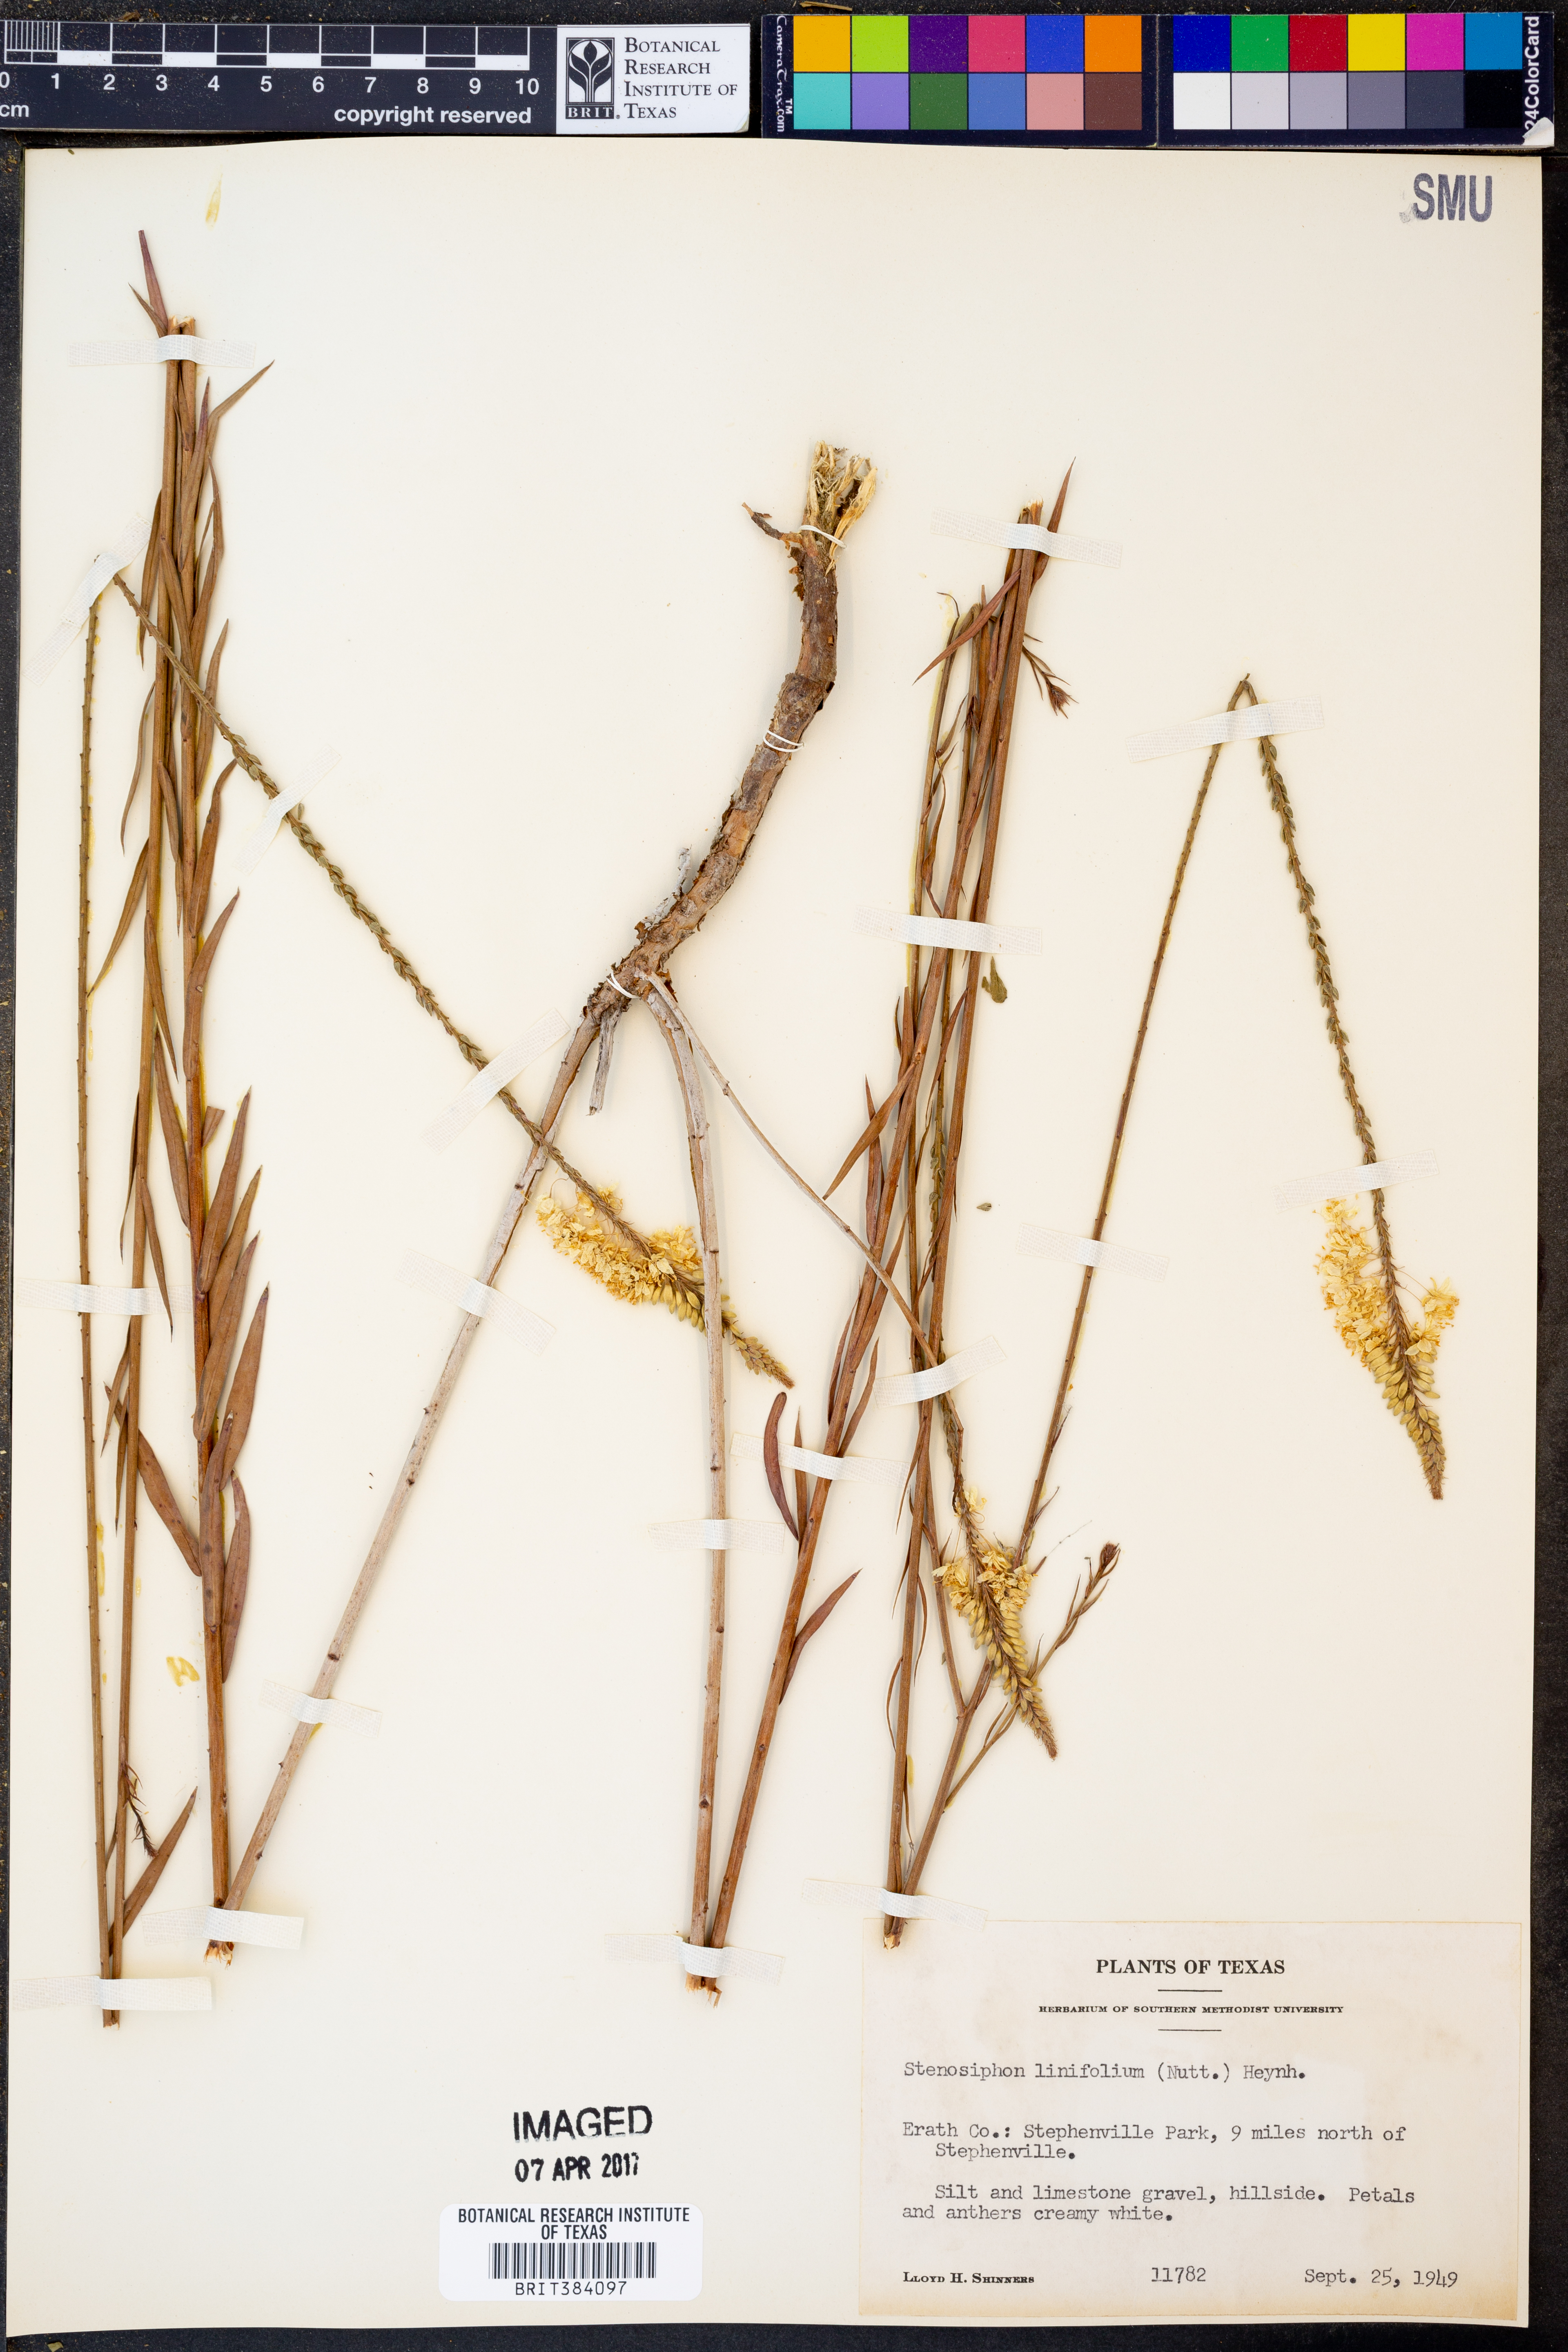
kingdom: Plantae
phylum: Tracheophyta
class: Magnoliopsida
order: Myrtales
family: Onagraceae
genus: Oenothera
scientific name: Oenothera glaucifolia
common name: False gaura
